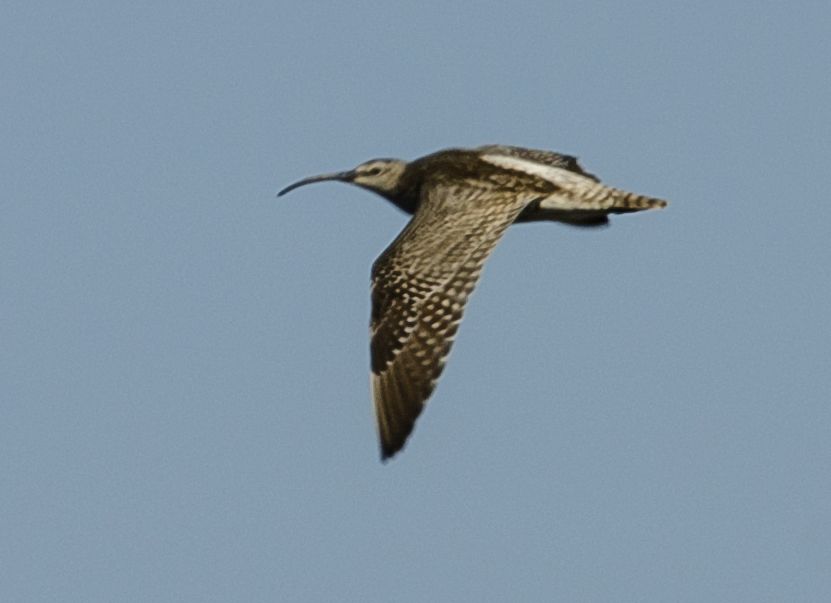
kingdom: Animalia
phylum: Chordata
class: Aves
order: Charadriiformes
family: Scolopacidae
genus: Numenius
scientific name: Numenius phaeopus
